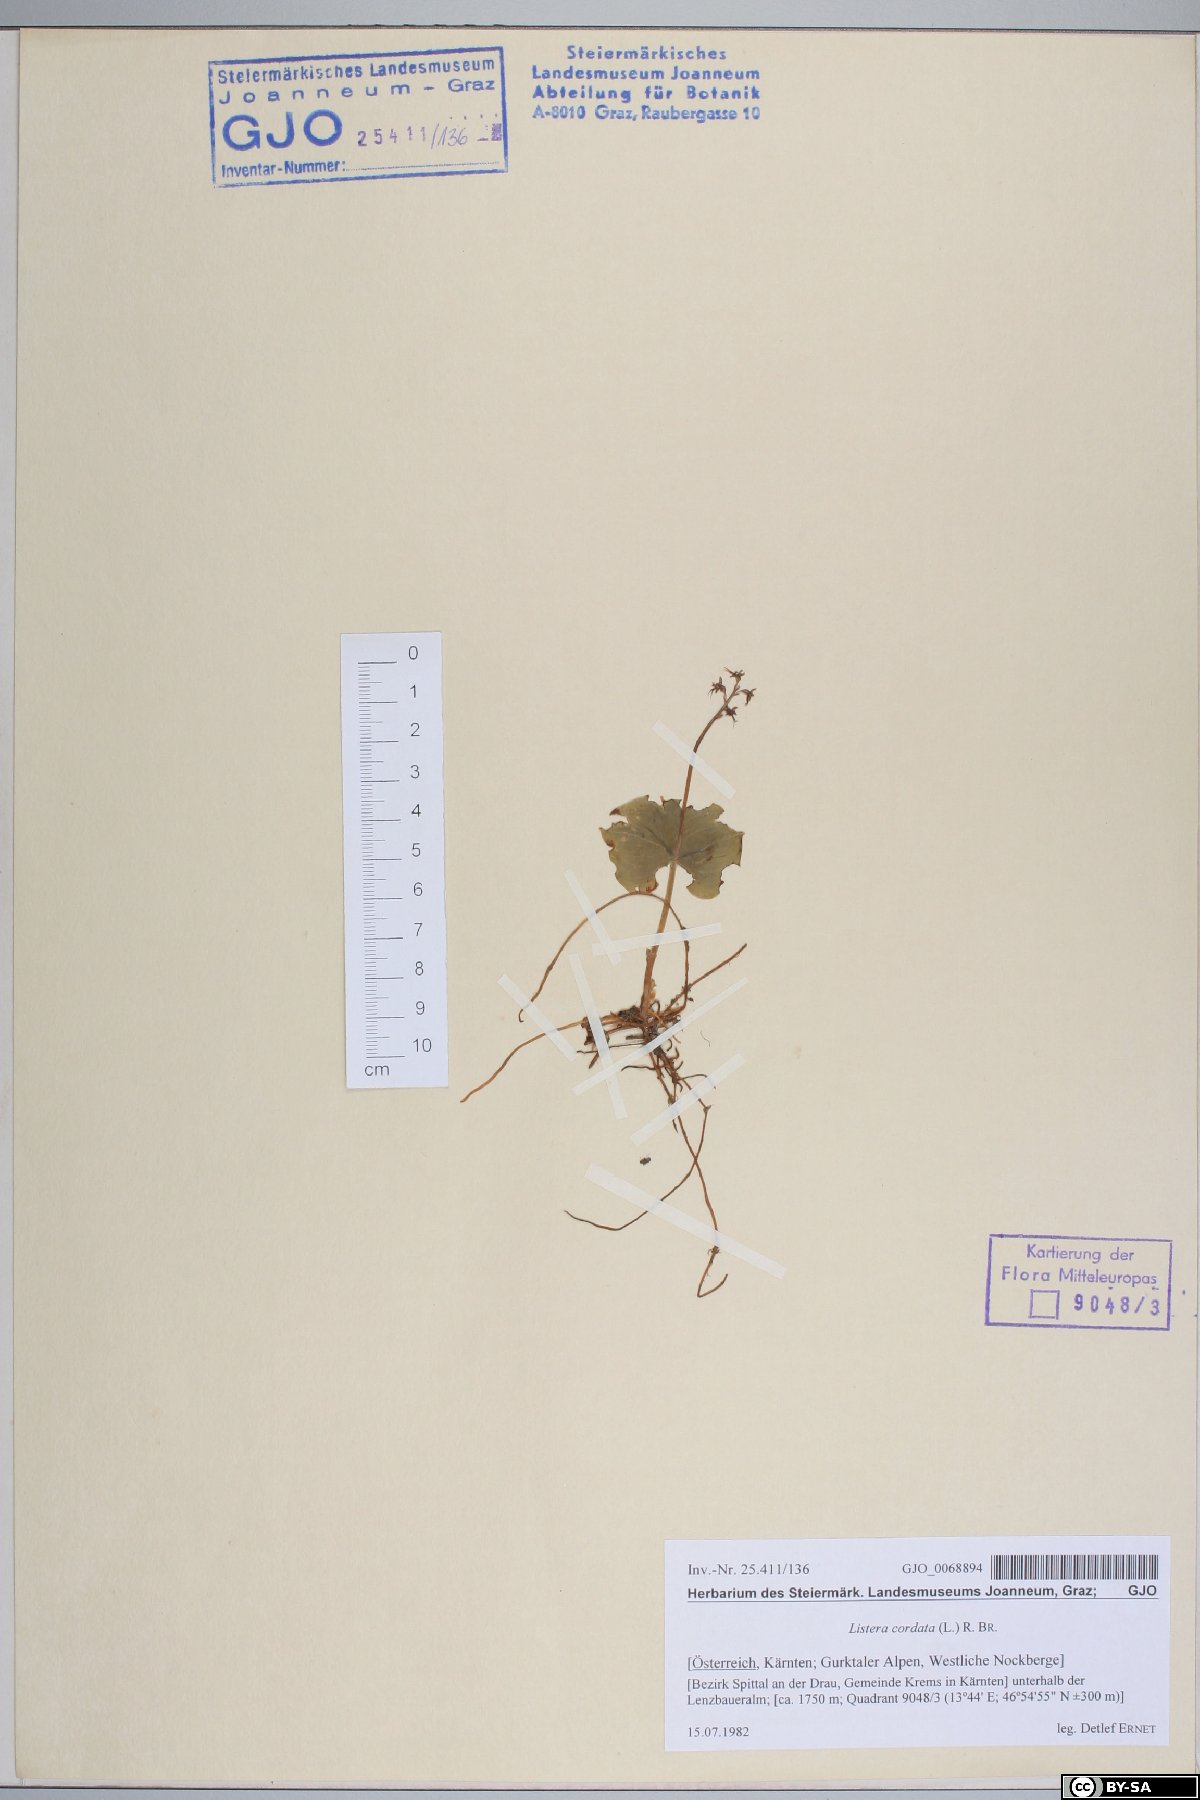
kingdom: Plantae
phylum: Tracheophyta
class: Liliopsida
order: Asparagales
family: Orchidaceae
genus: Neottia
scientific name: Neottia cordata
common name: Lesser twayblade
